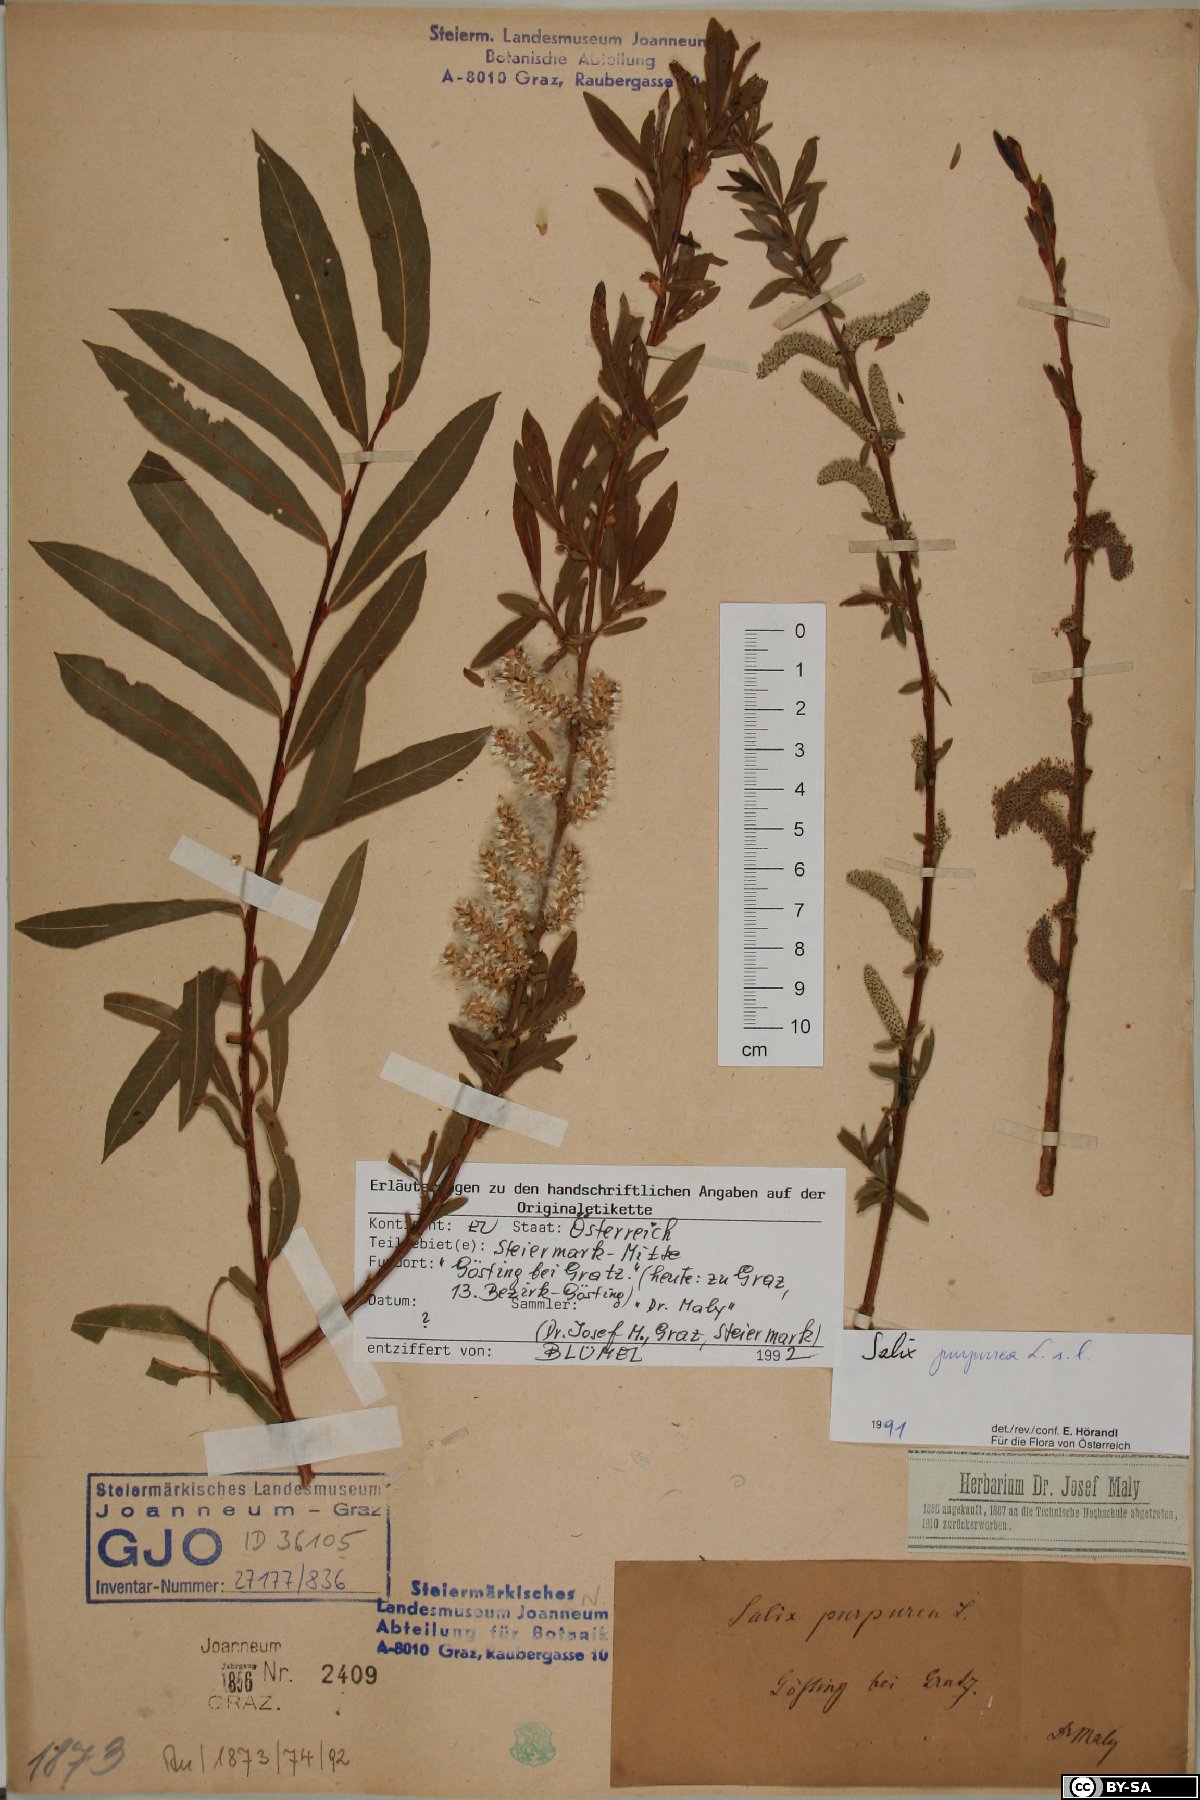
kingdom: Plantae
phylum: Tracheophyta
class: Magnoliopsida
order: Malpighiales
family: Salicaceae
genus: Salix
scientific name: Salix purpurea
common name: Purple willow
